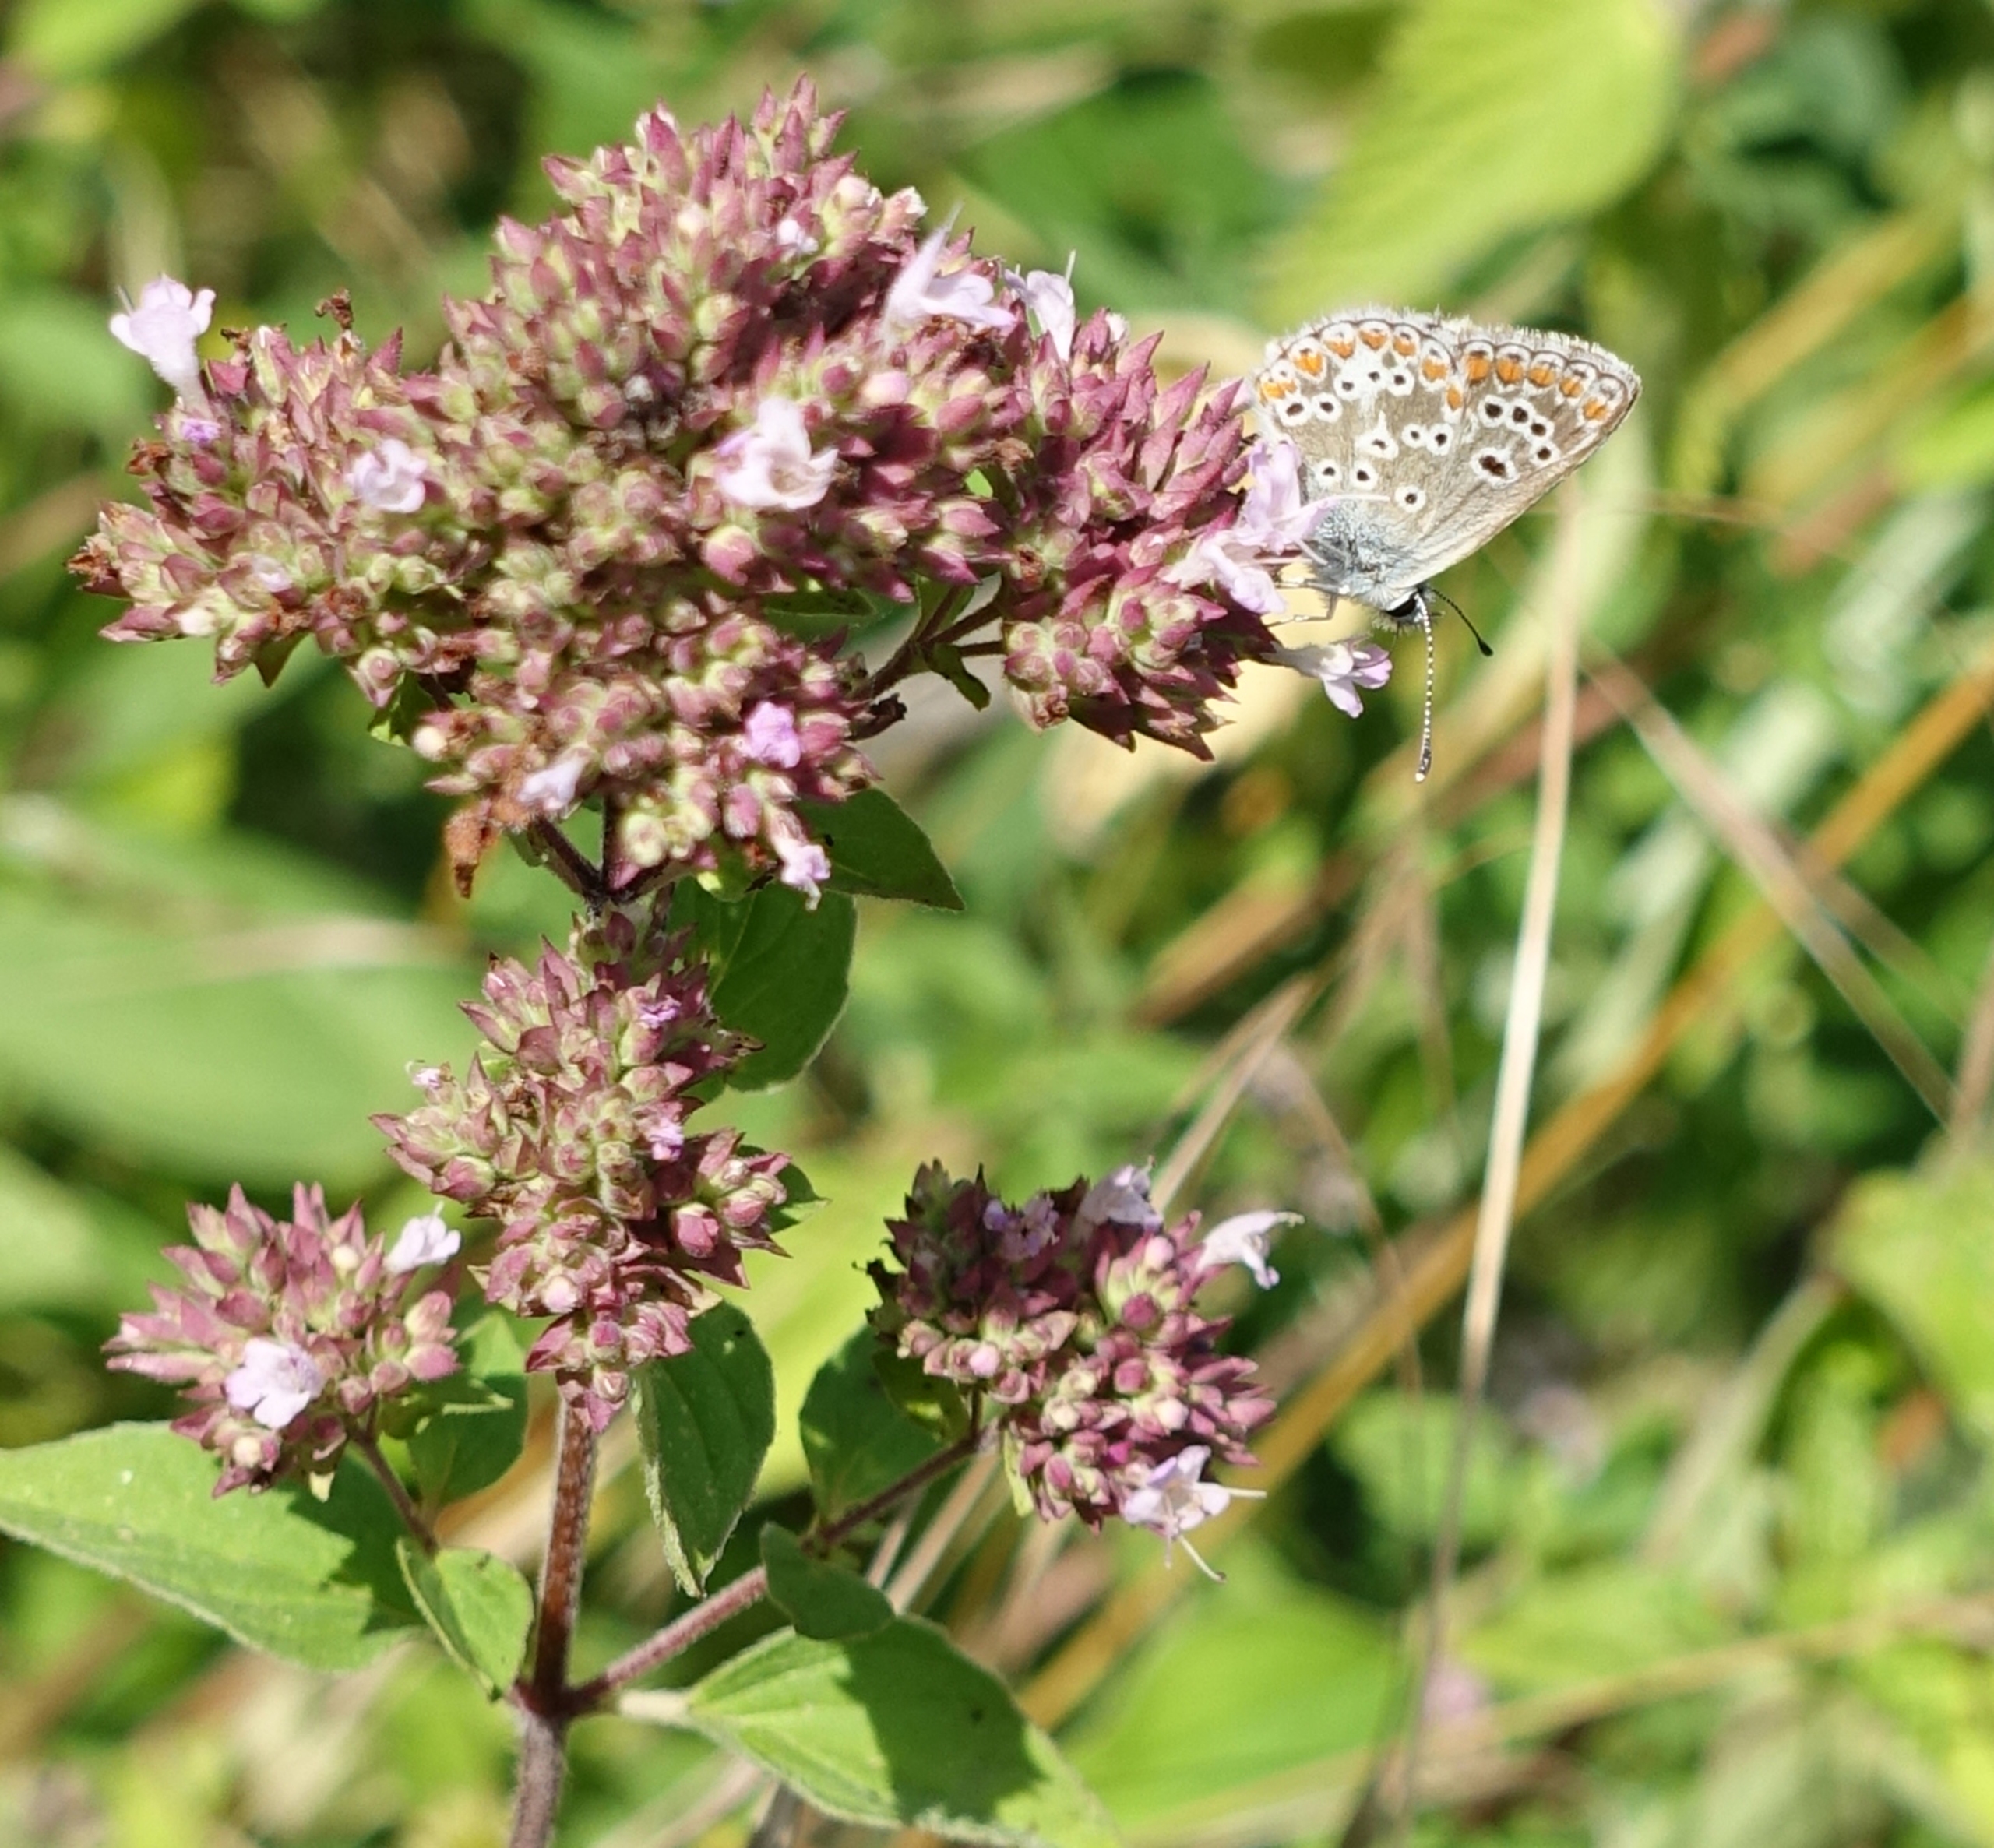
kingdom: Animalia
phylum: Arthropoda
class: Insecta
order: Lepidoptera
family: Lycaenidae
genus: Aricia
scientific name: Aricia agestis
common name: Rødplettet blåfugl
